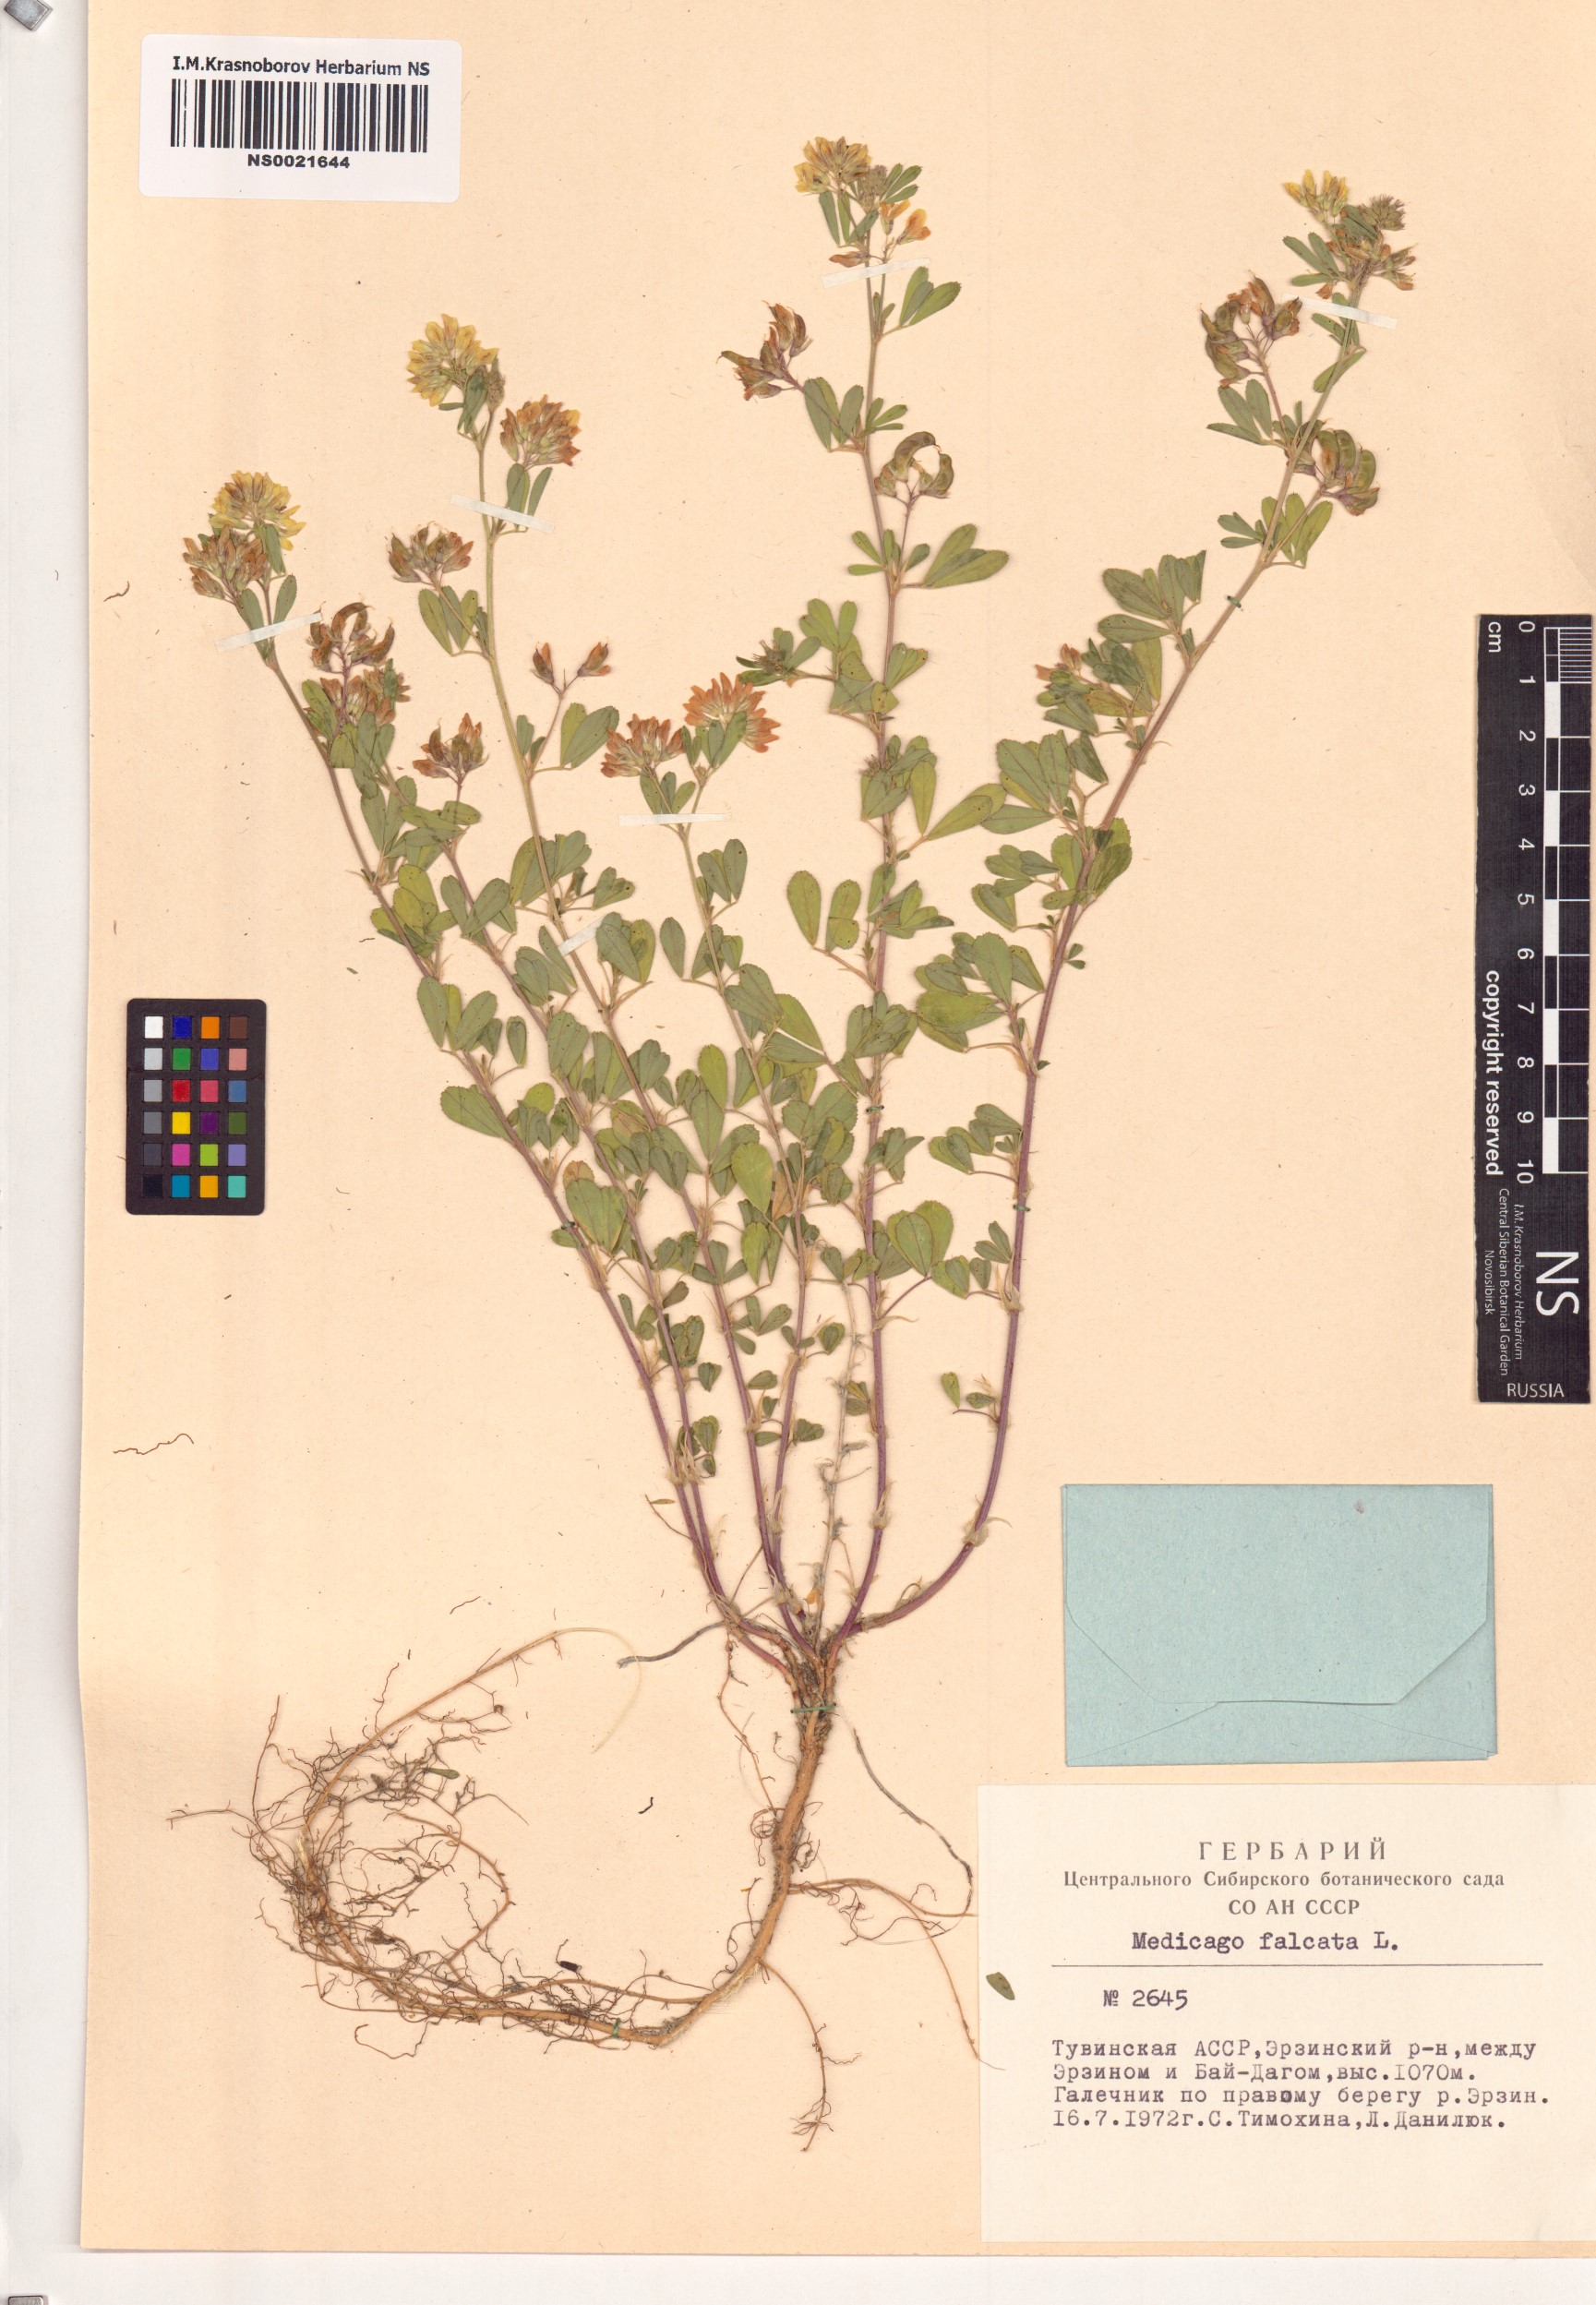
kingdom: Plantae
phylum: Tracheophyta
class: Magnoliopsida
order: Fabales
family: Fabaceae
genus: Medicago
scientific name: Medicago falcata
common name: Sickle medick
